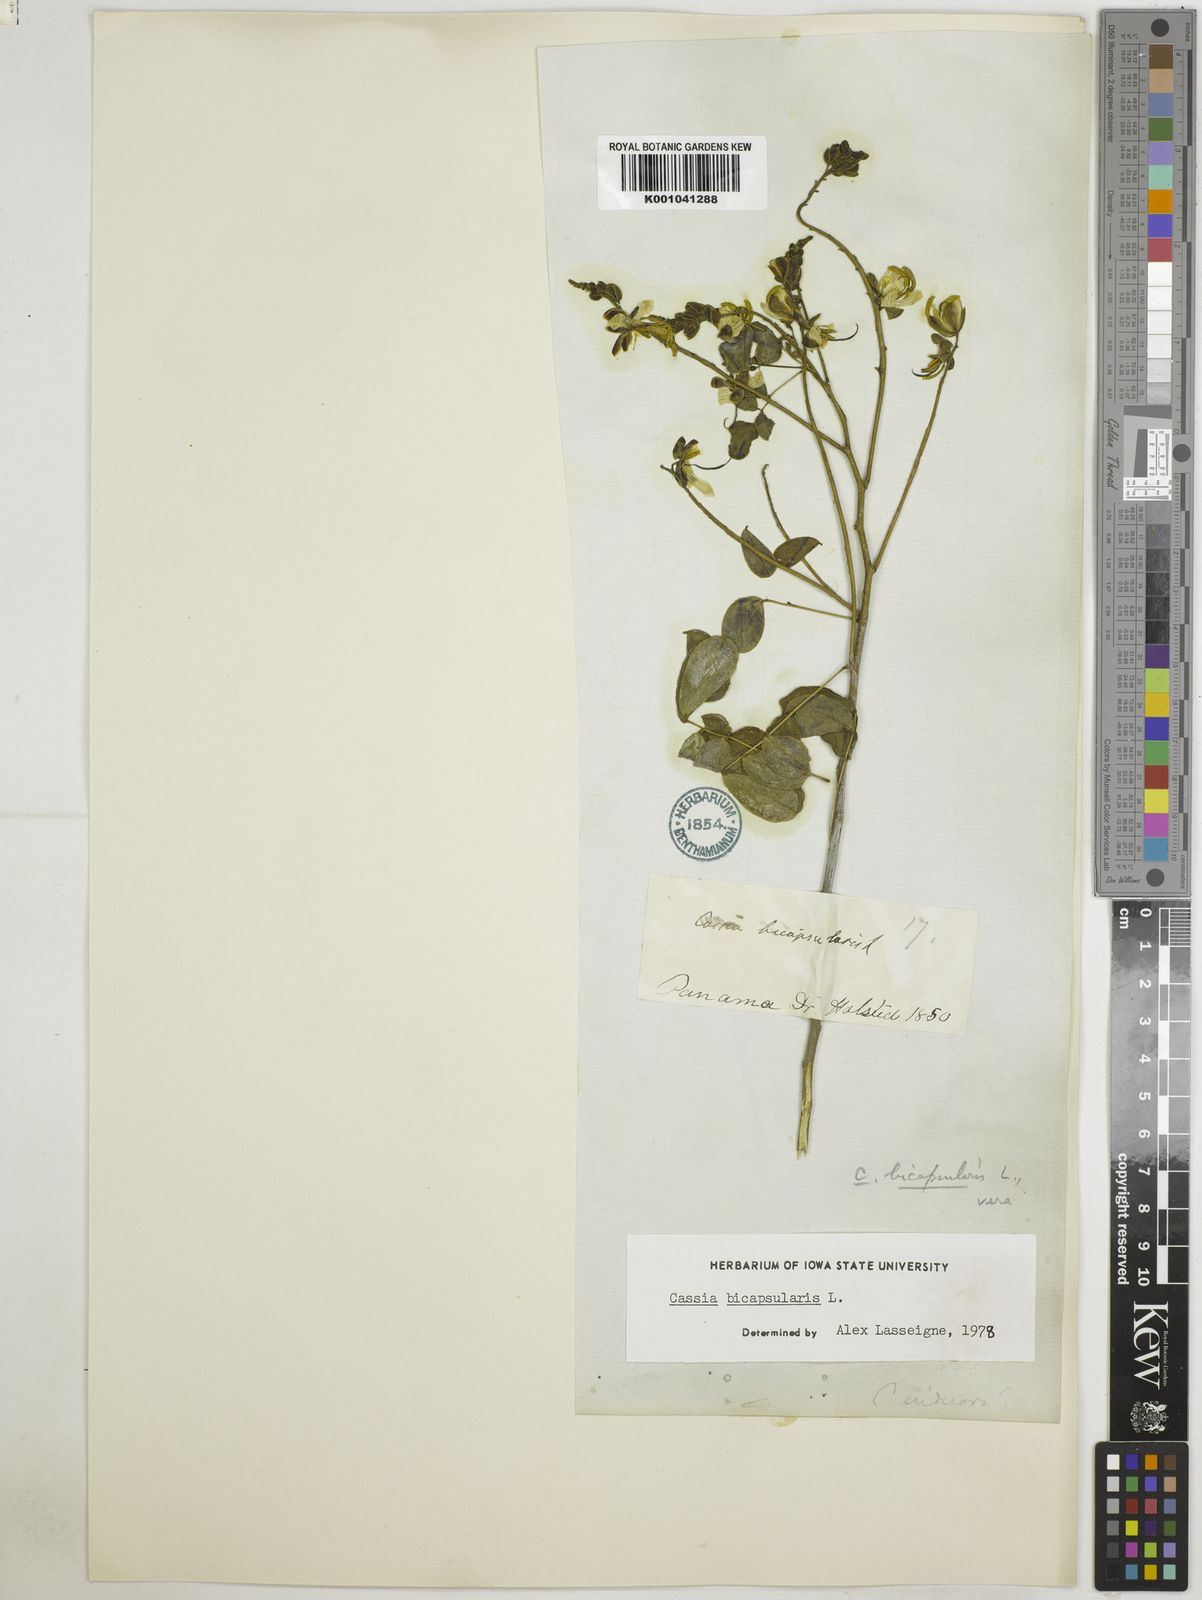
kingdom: Plantae
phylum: Tracheophyta
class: Magnoliopsida
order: Fabales
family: Fabaceae
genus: Senna
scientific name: Senna bicapsularis
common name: Christmasbush
